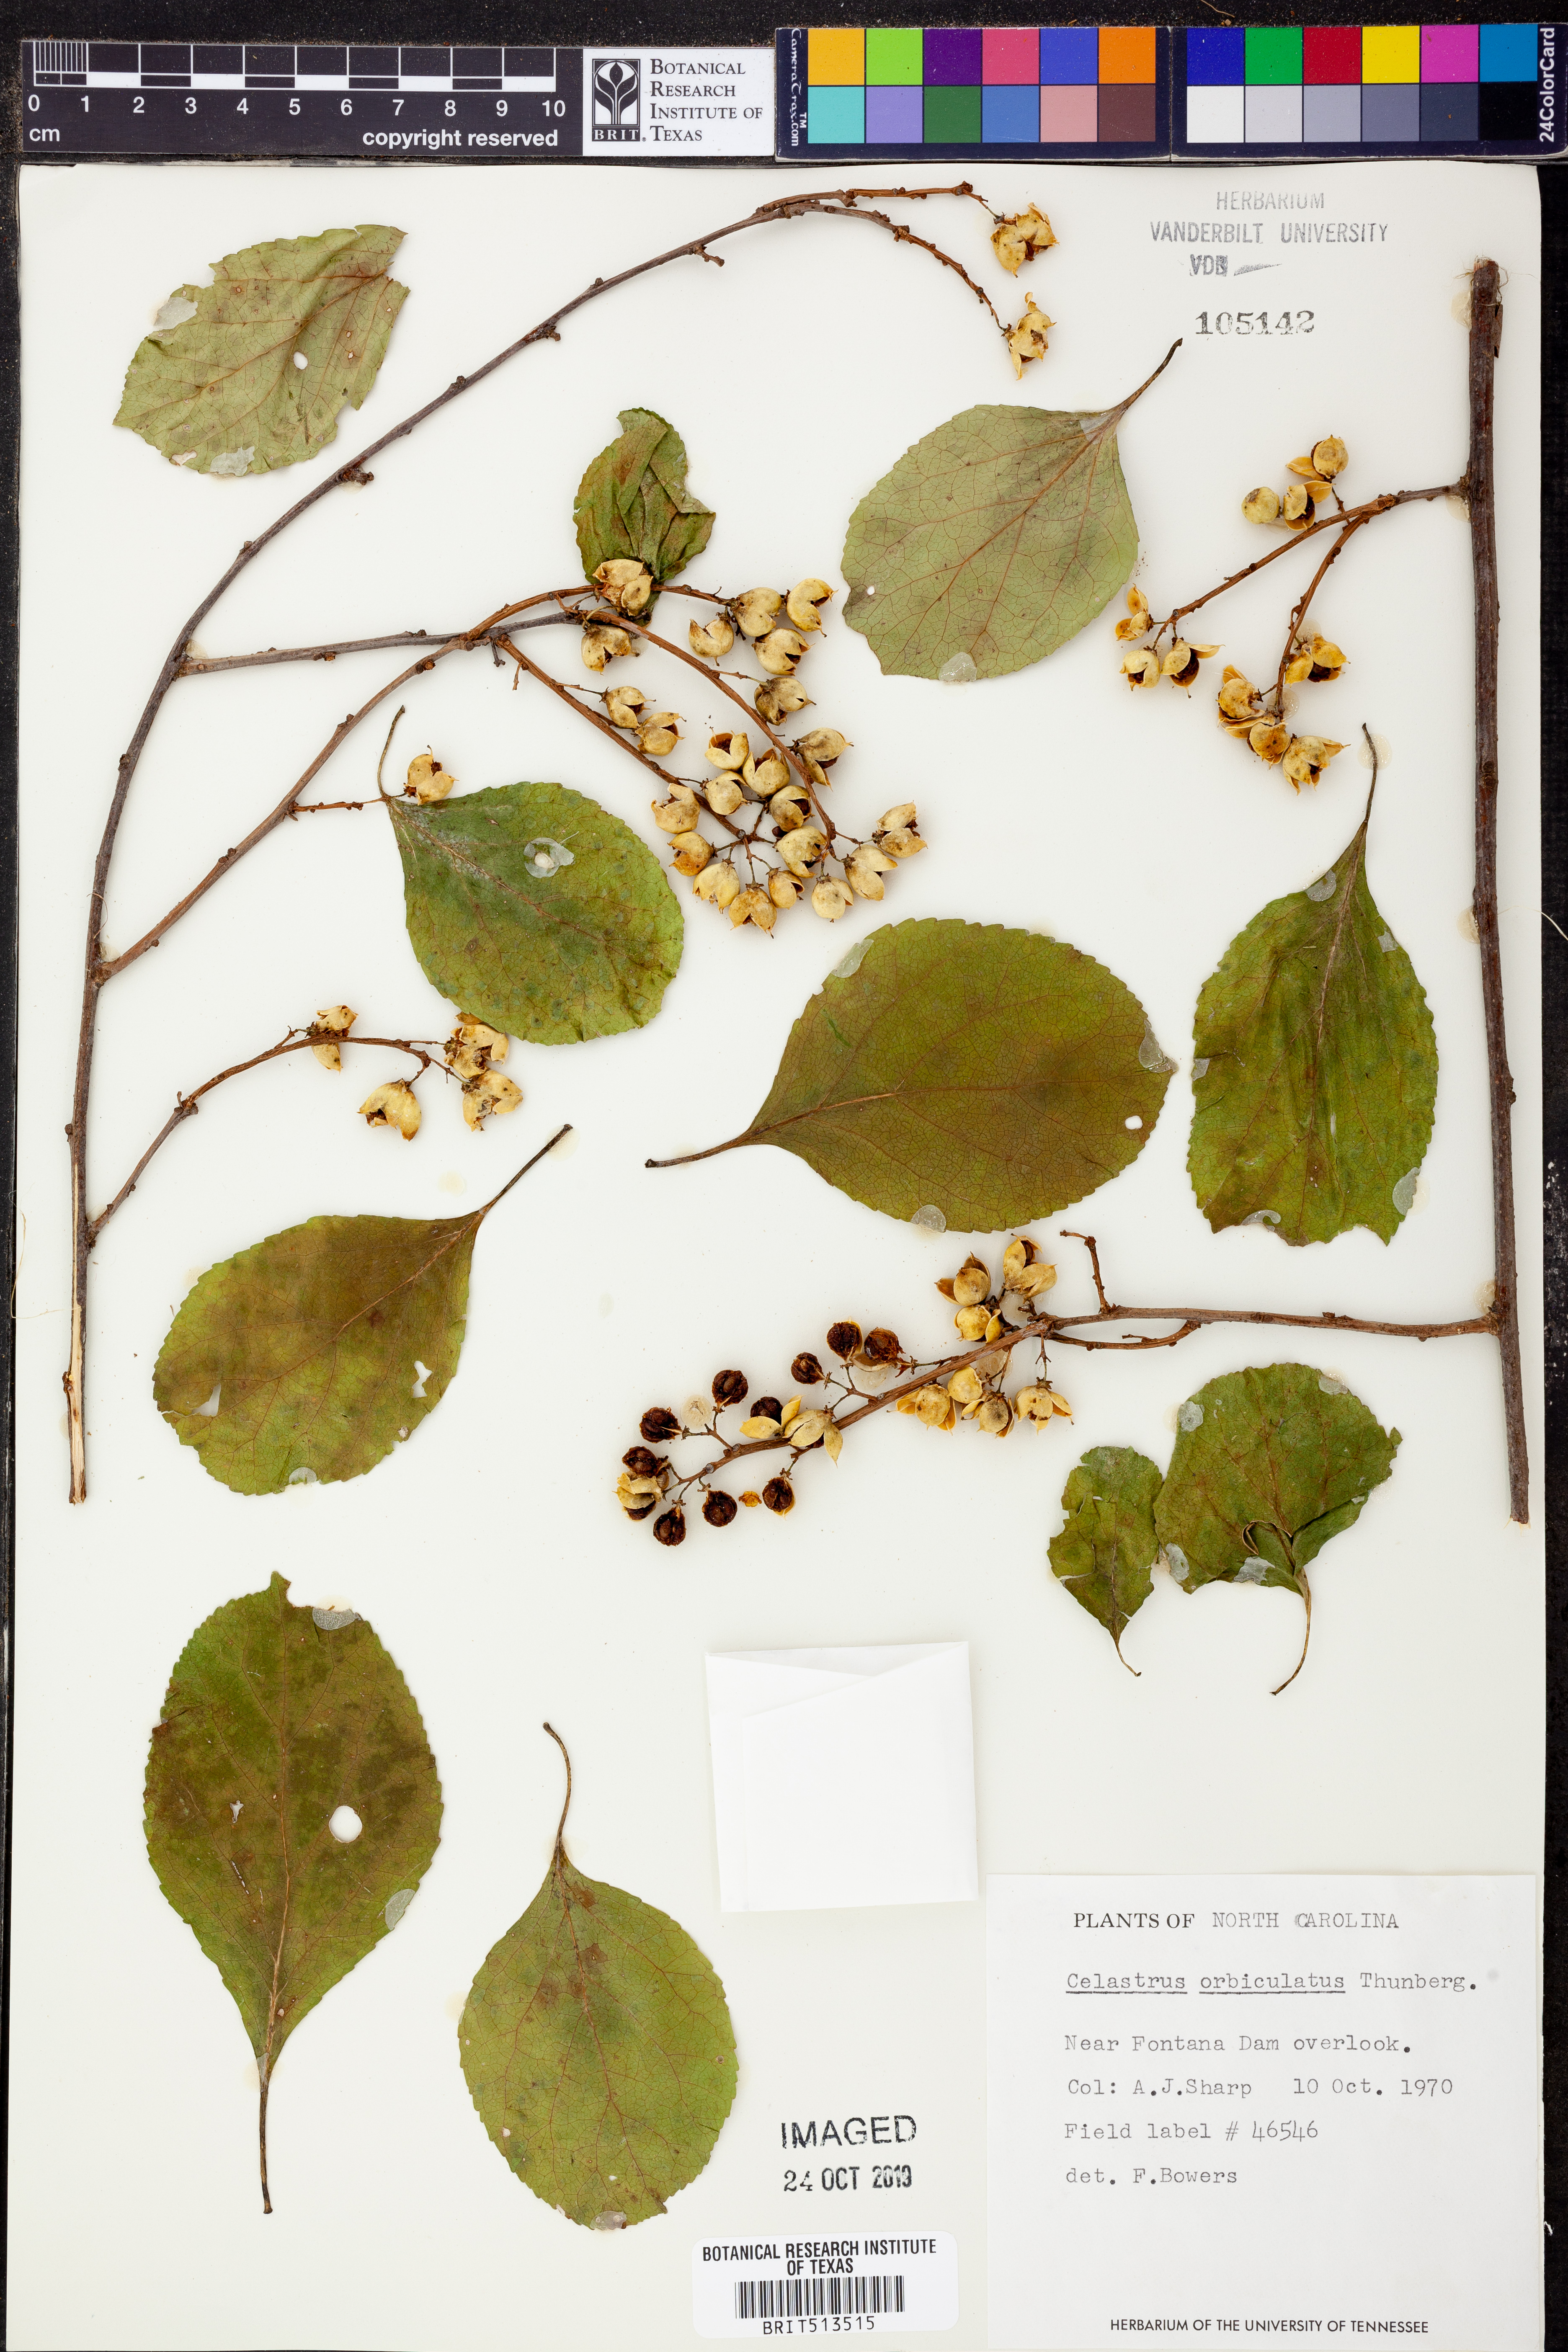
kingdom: Plantae
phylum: Tracheophyta
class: Magnoliopsida
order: Celastrales
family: Celastraceae
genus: Celastrus
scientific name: Celastrus orbiculatus
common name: Oriental bittersweet
